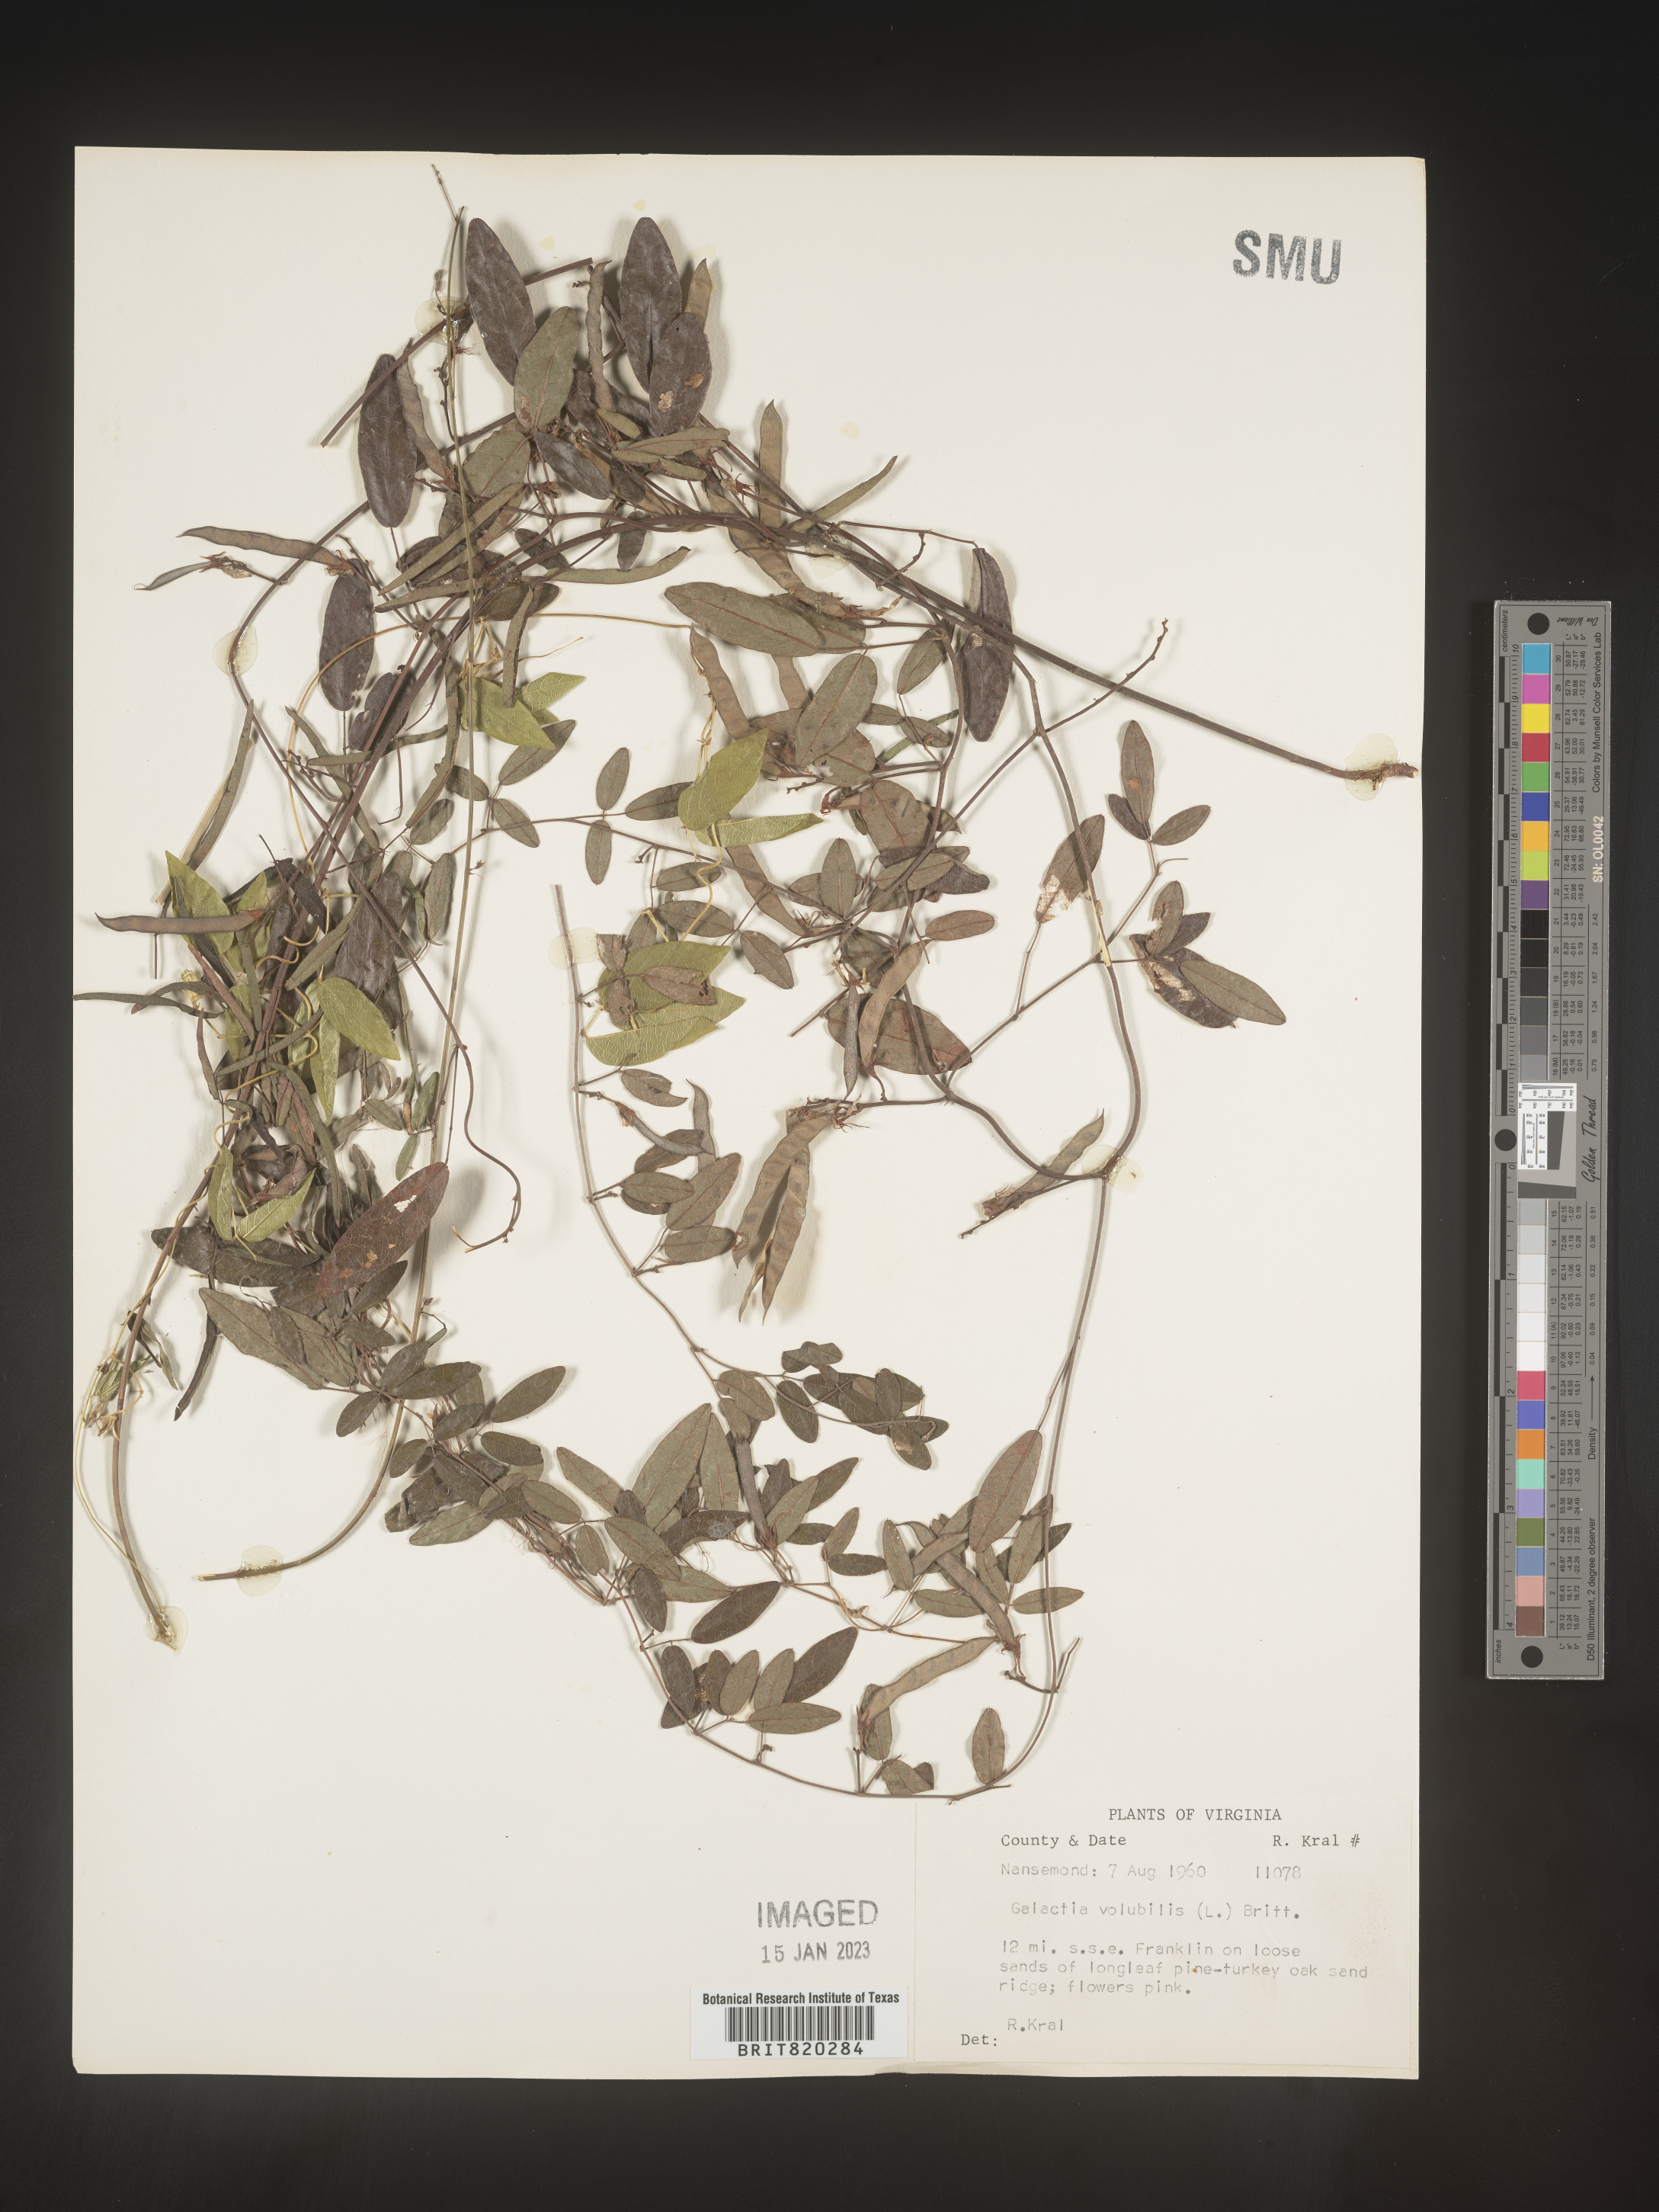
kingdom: Plantae
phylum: Tracheophyta
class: Magnoliopsida
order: Fabales
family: Fabaceae
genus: Galactia
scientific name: Galactia volubilis
